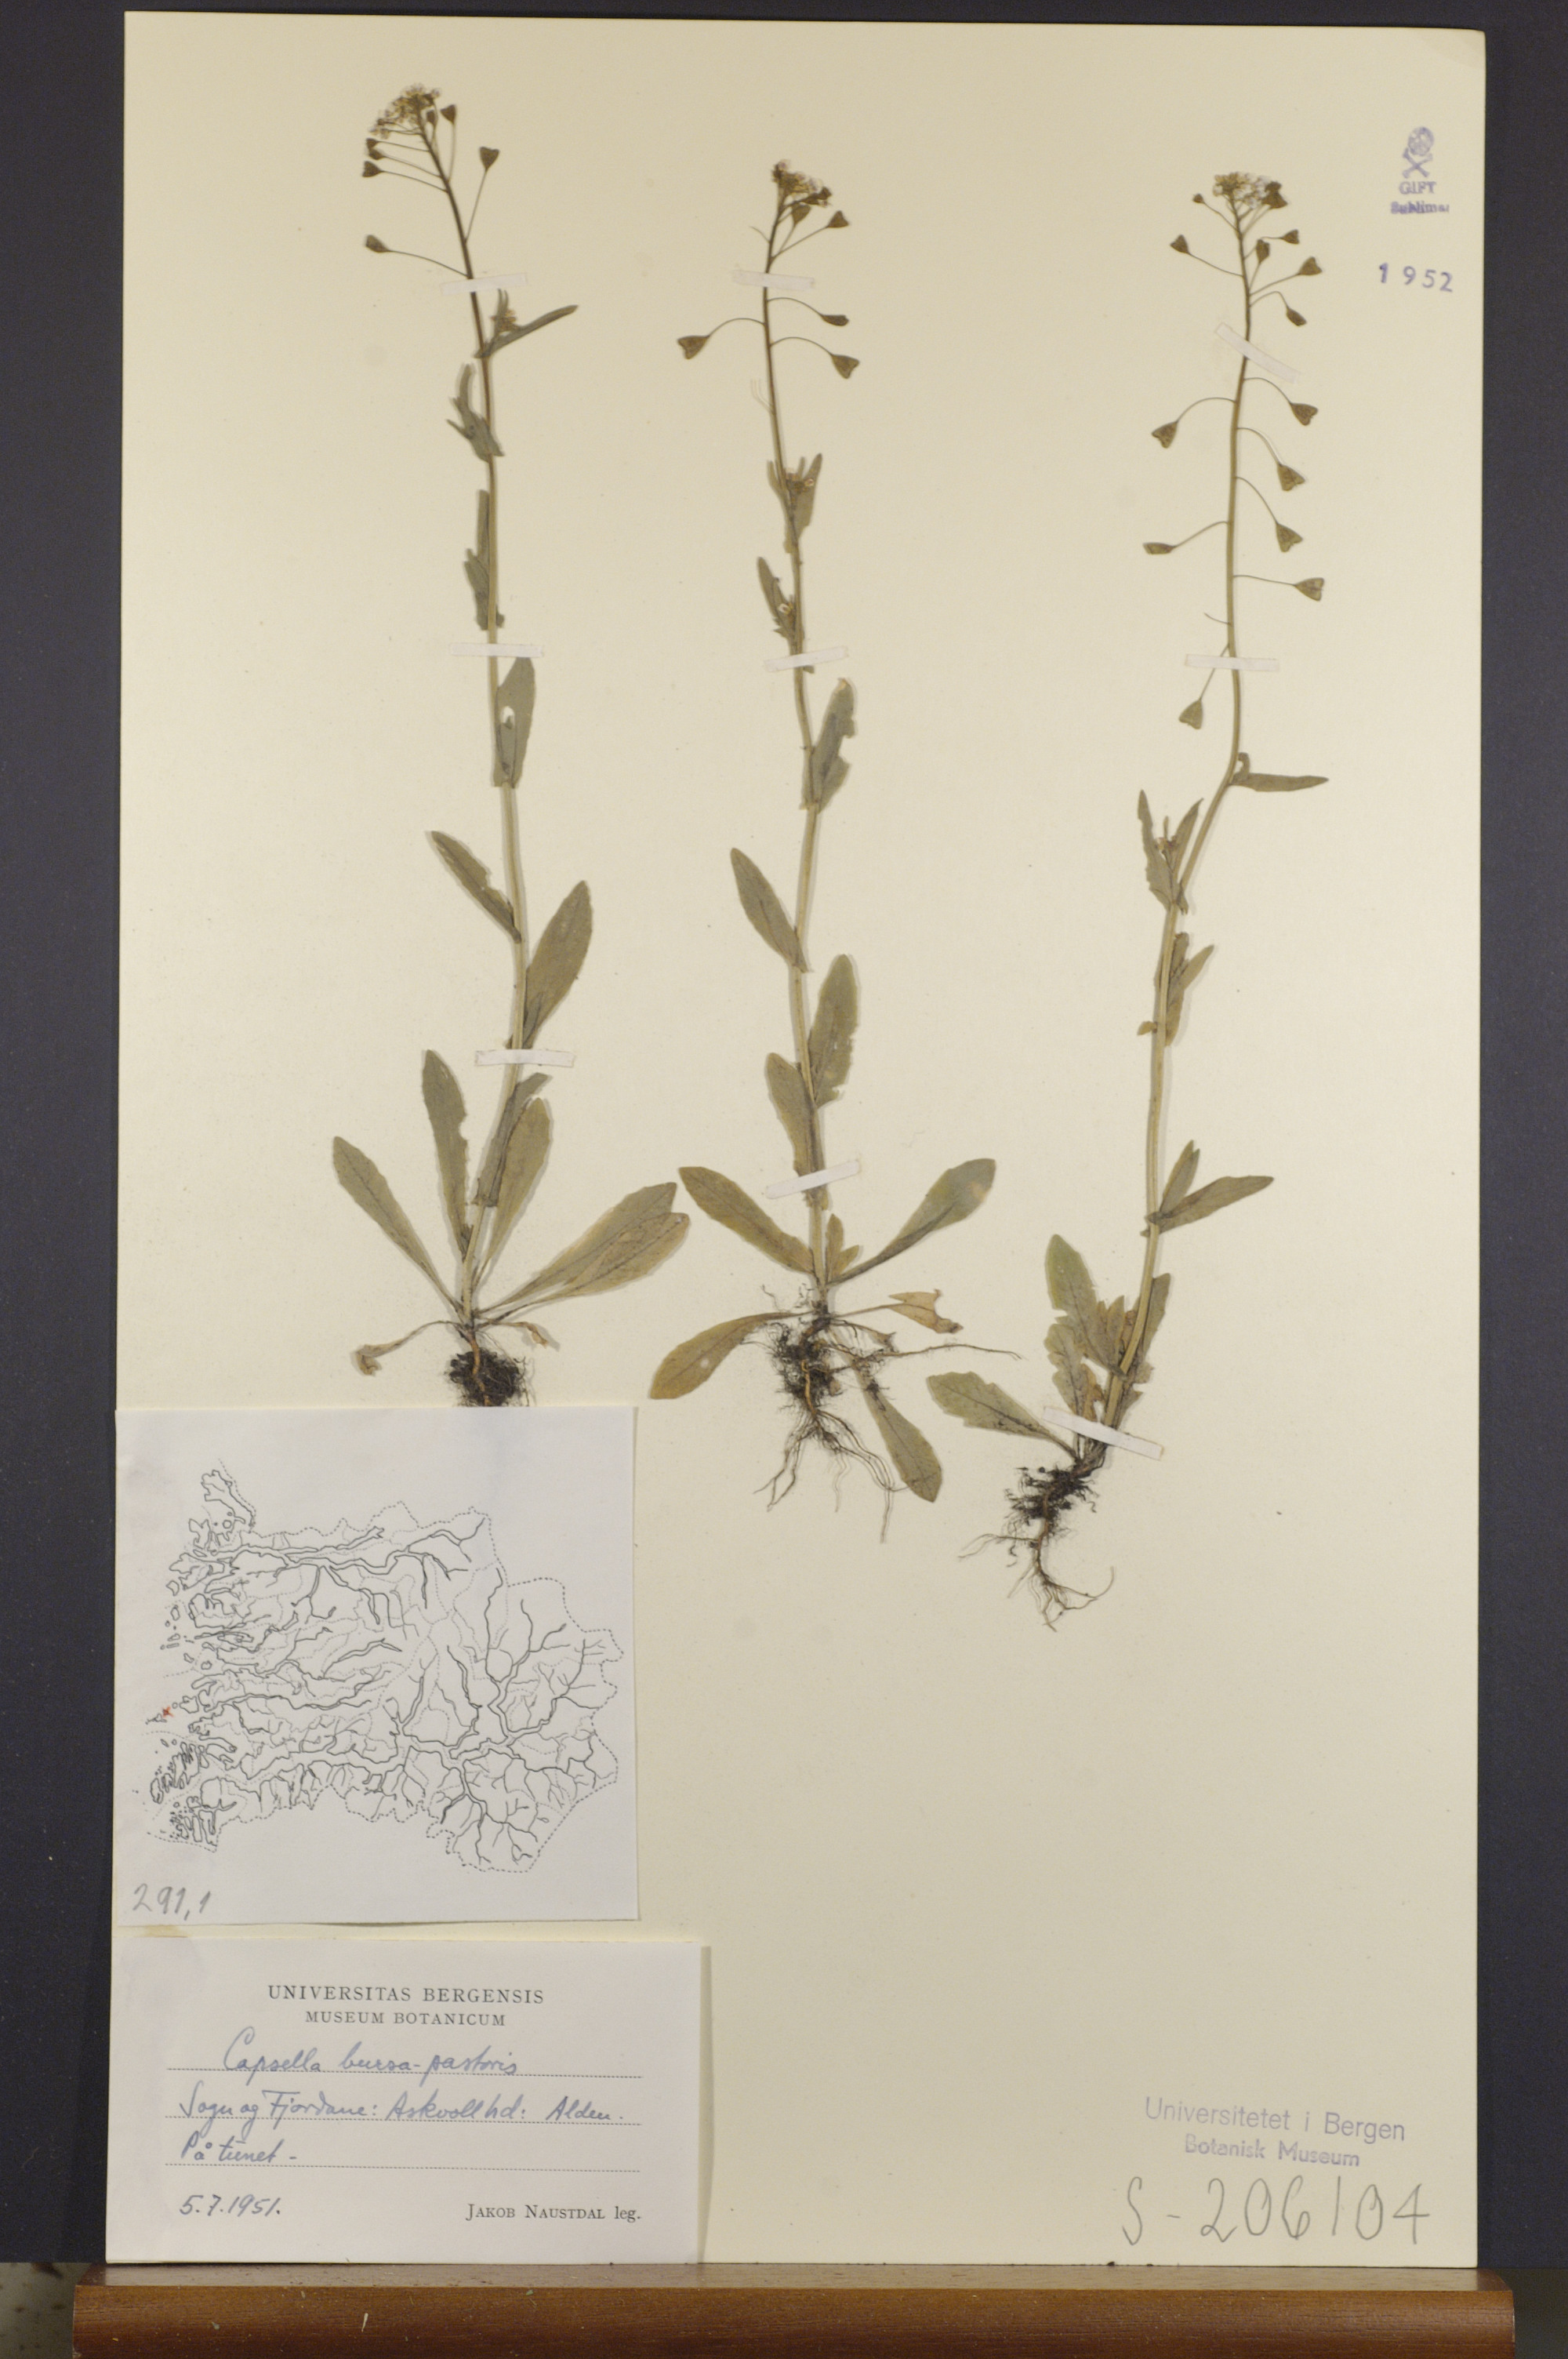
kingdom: Plantae
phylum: Tracheophyta
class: Magnoliopsida
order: Brassicales
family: Brassicaceae
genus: Capsella
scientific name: Capsella bursa-pastoris
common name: Shepherd's purse
